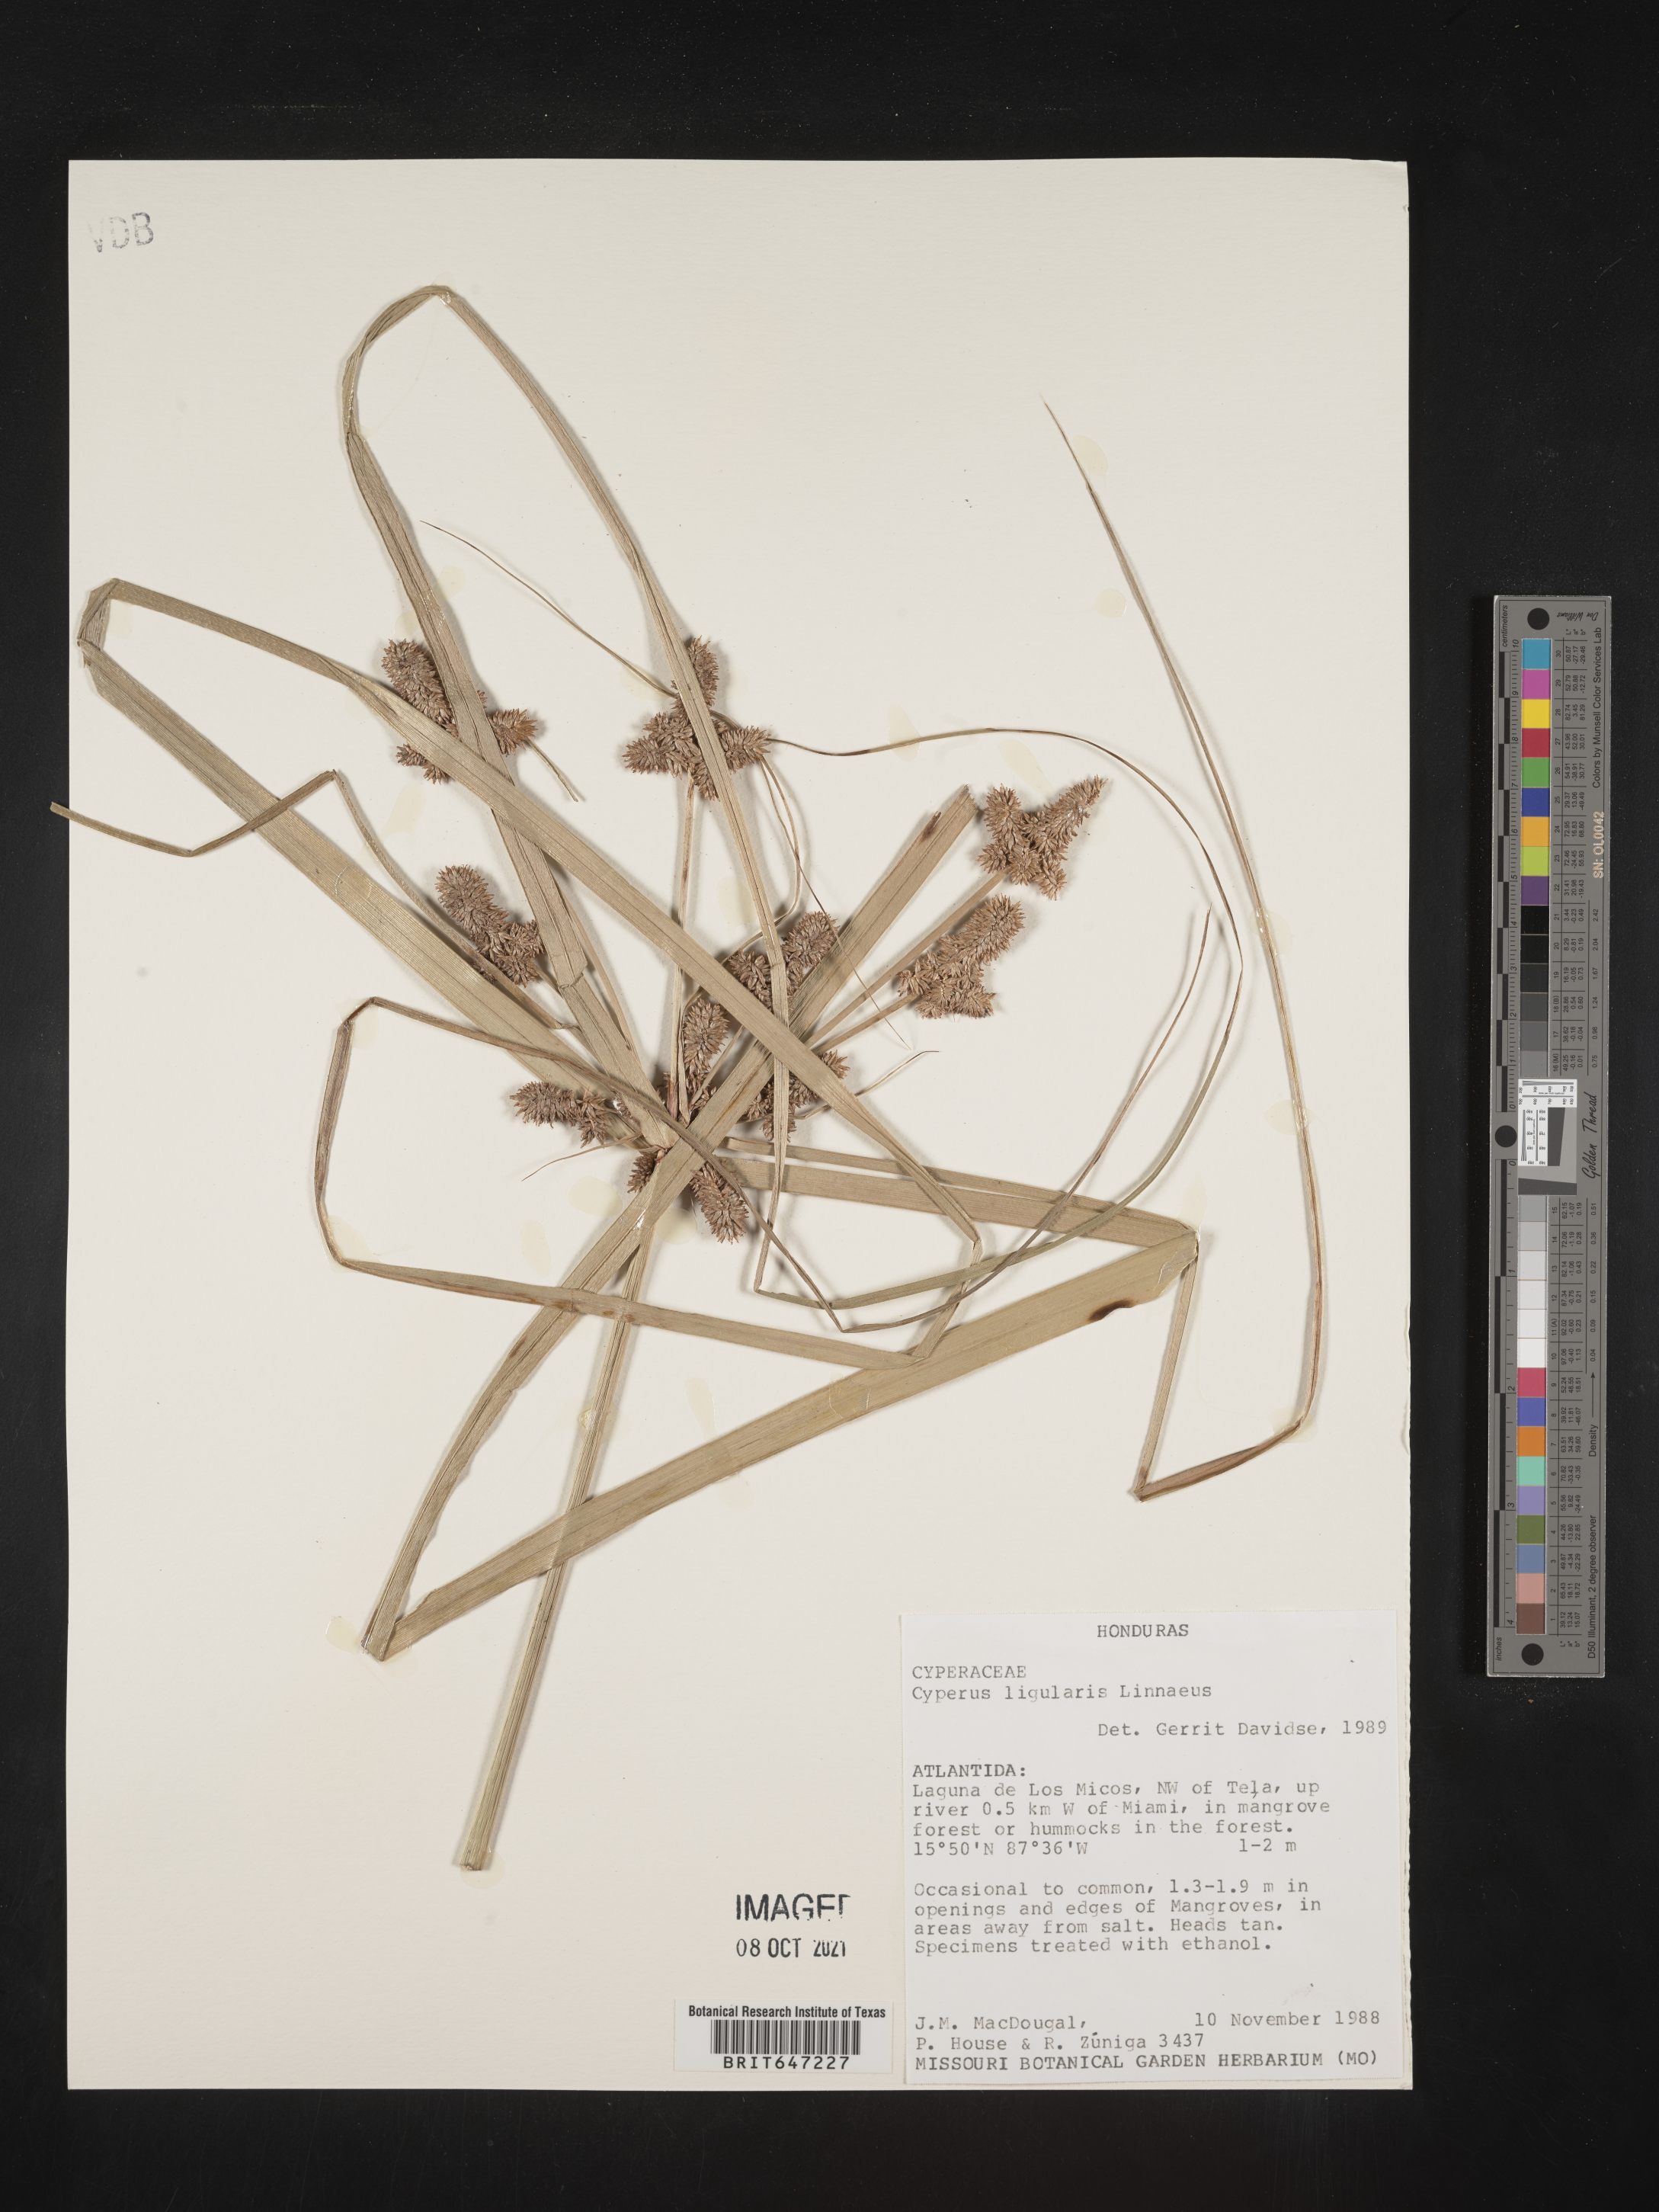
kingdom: Plantae
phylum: Tracheophyta
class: Liliopsida
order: Poales
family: Cyperaceae
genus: Cyperus
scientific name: Cyperus ligularis
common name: Swamp flat sedge
